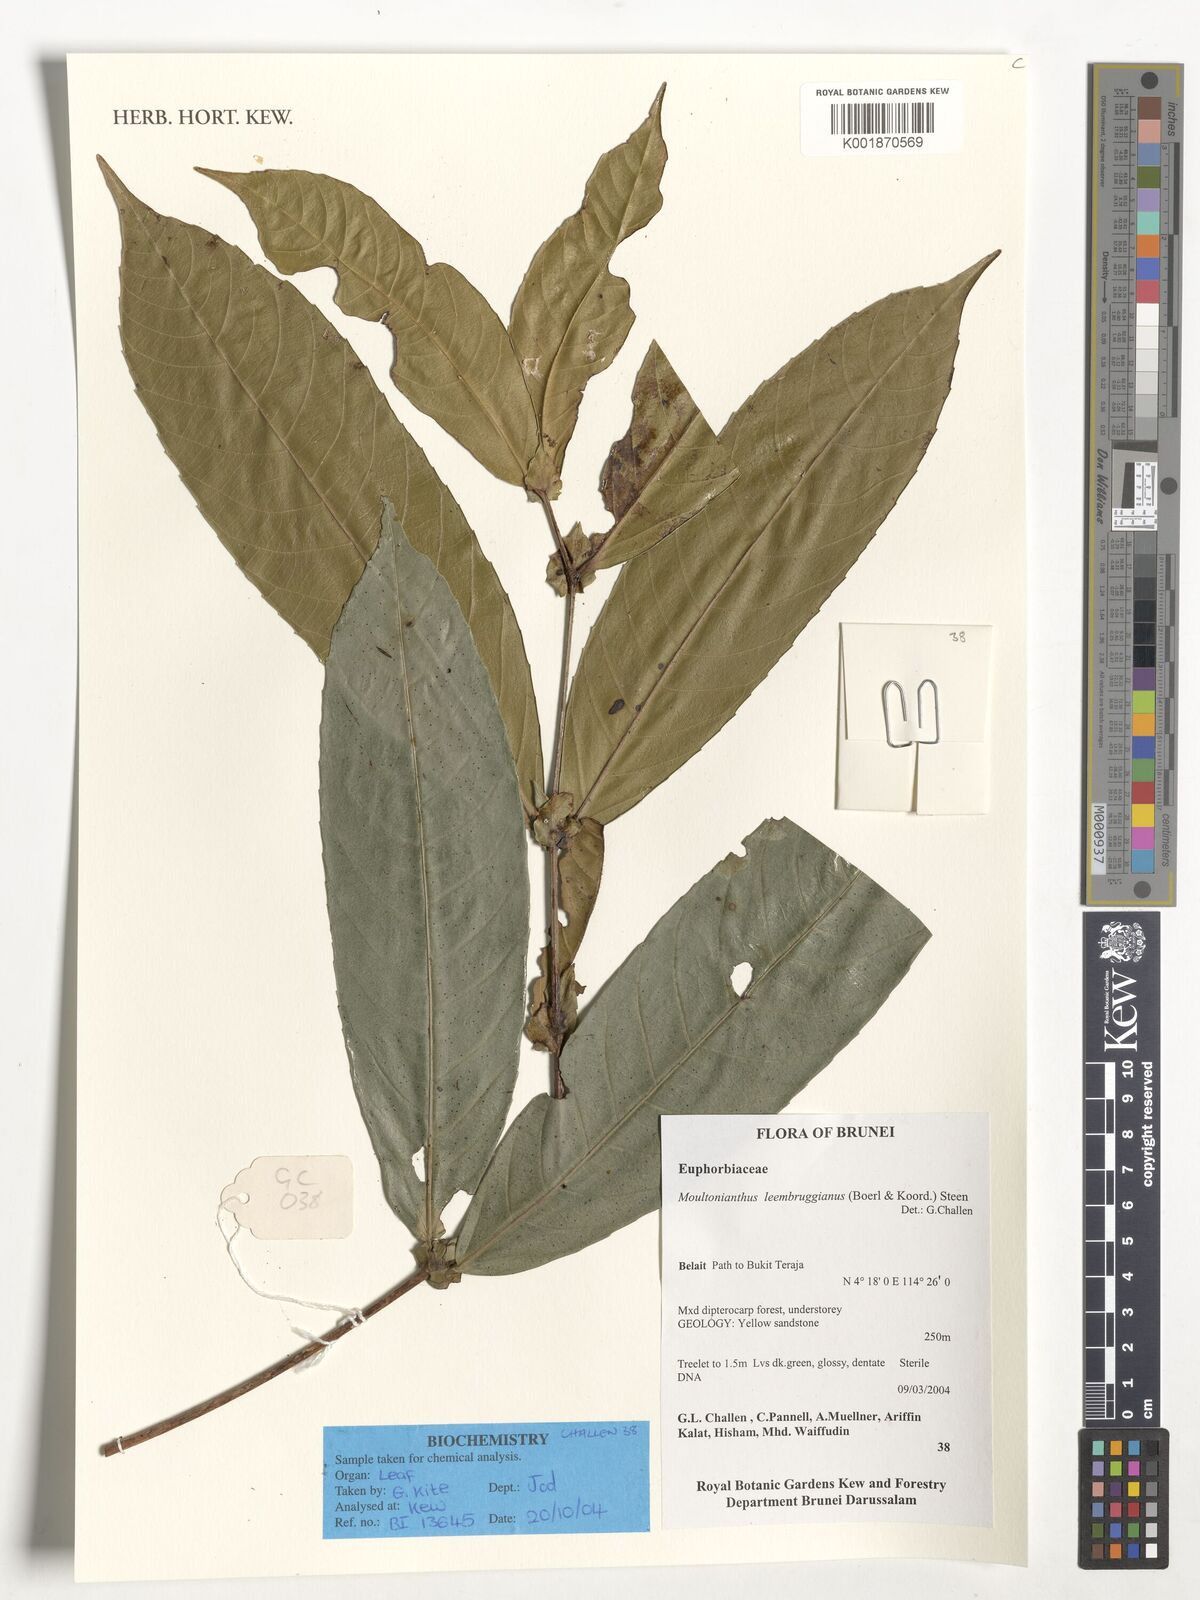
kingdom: Plantae
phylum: Tracheophyta
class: Magnoliopsida
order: Malpighiales
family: Euphorbiaceae
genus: Moultonianthus
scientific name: Moultonianthus leembruggianus
